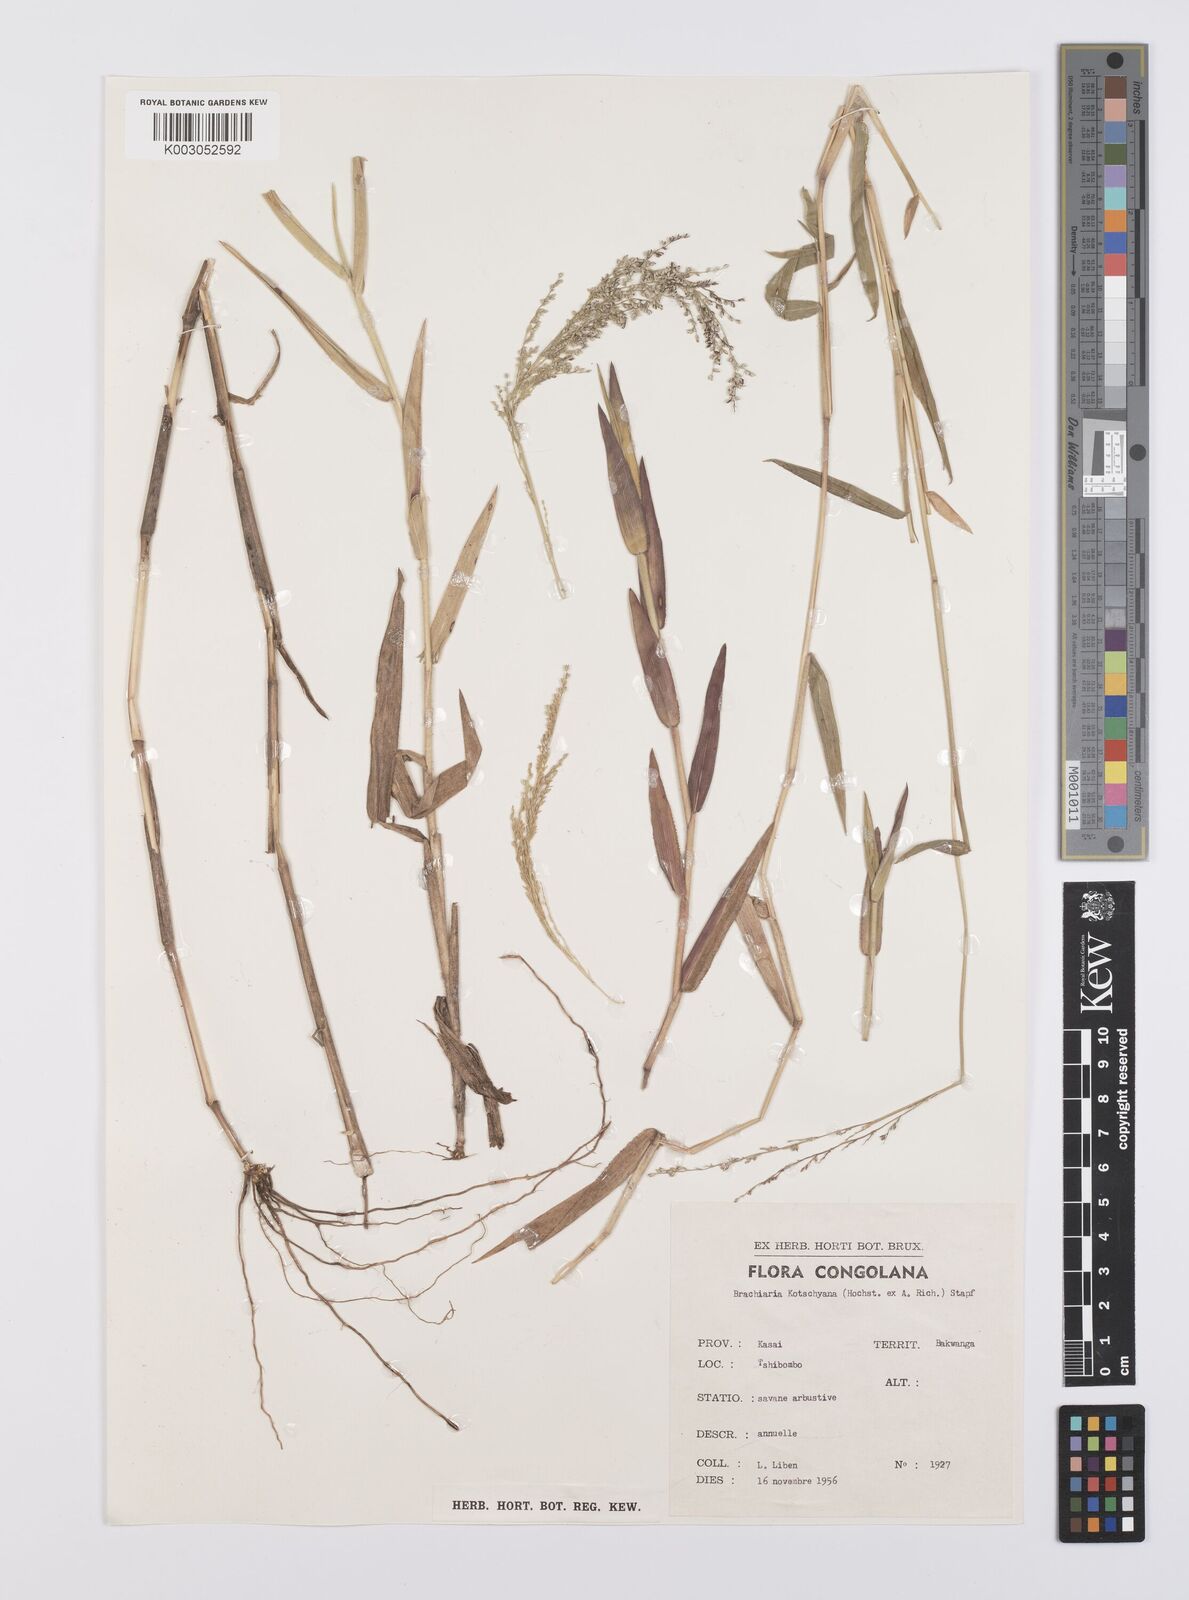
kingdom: Plantae
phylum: Tracheophyta
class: Liliopsida
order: Poales
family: Poaceae
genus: Urochloa
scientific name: Urochloa comata
